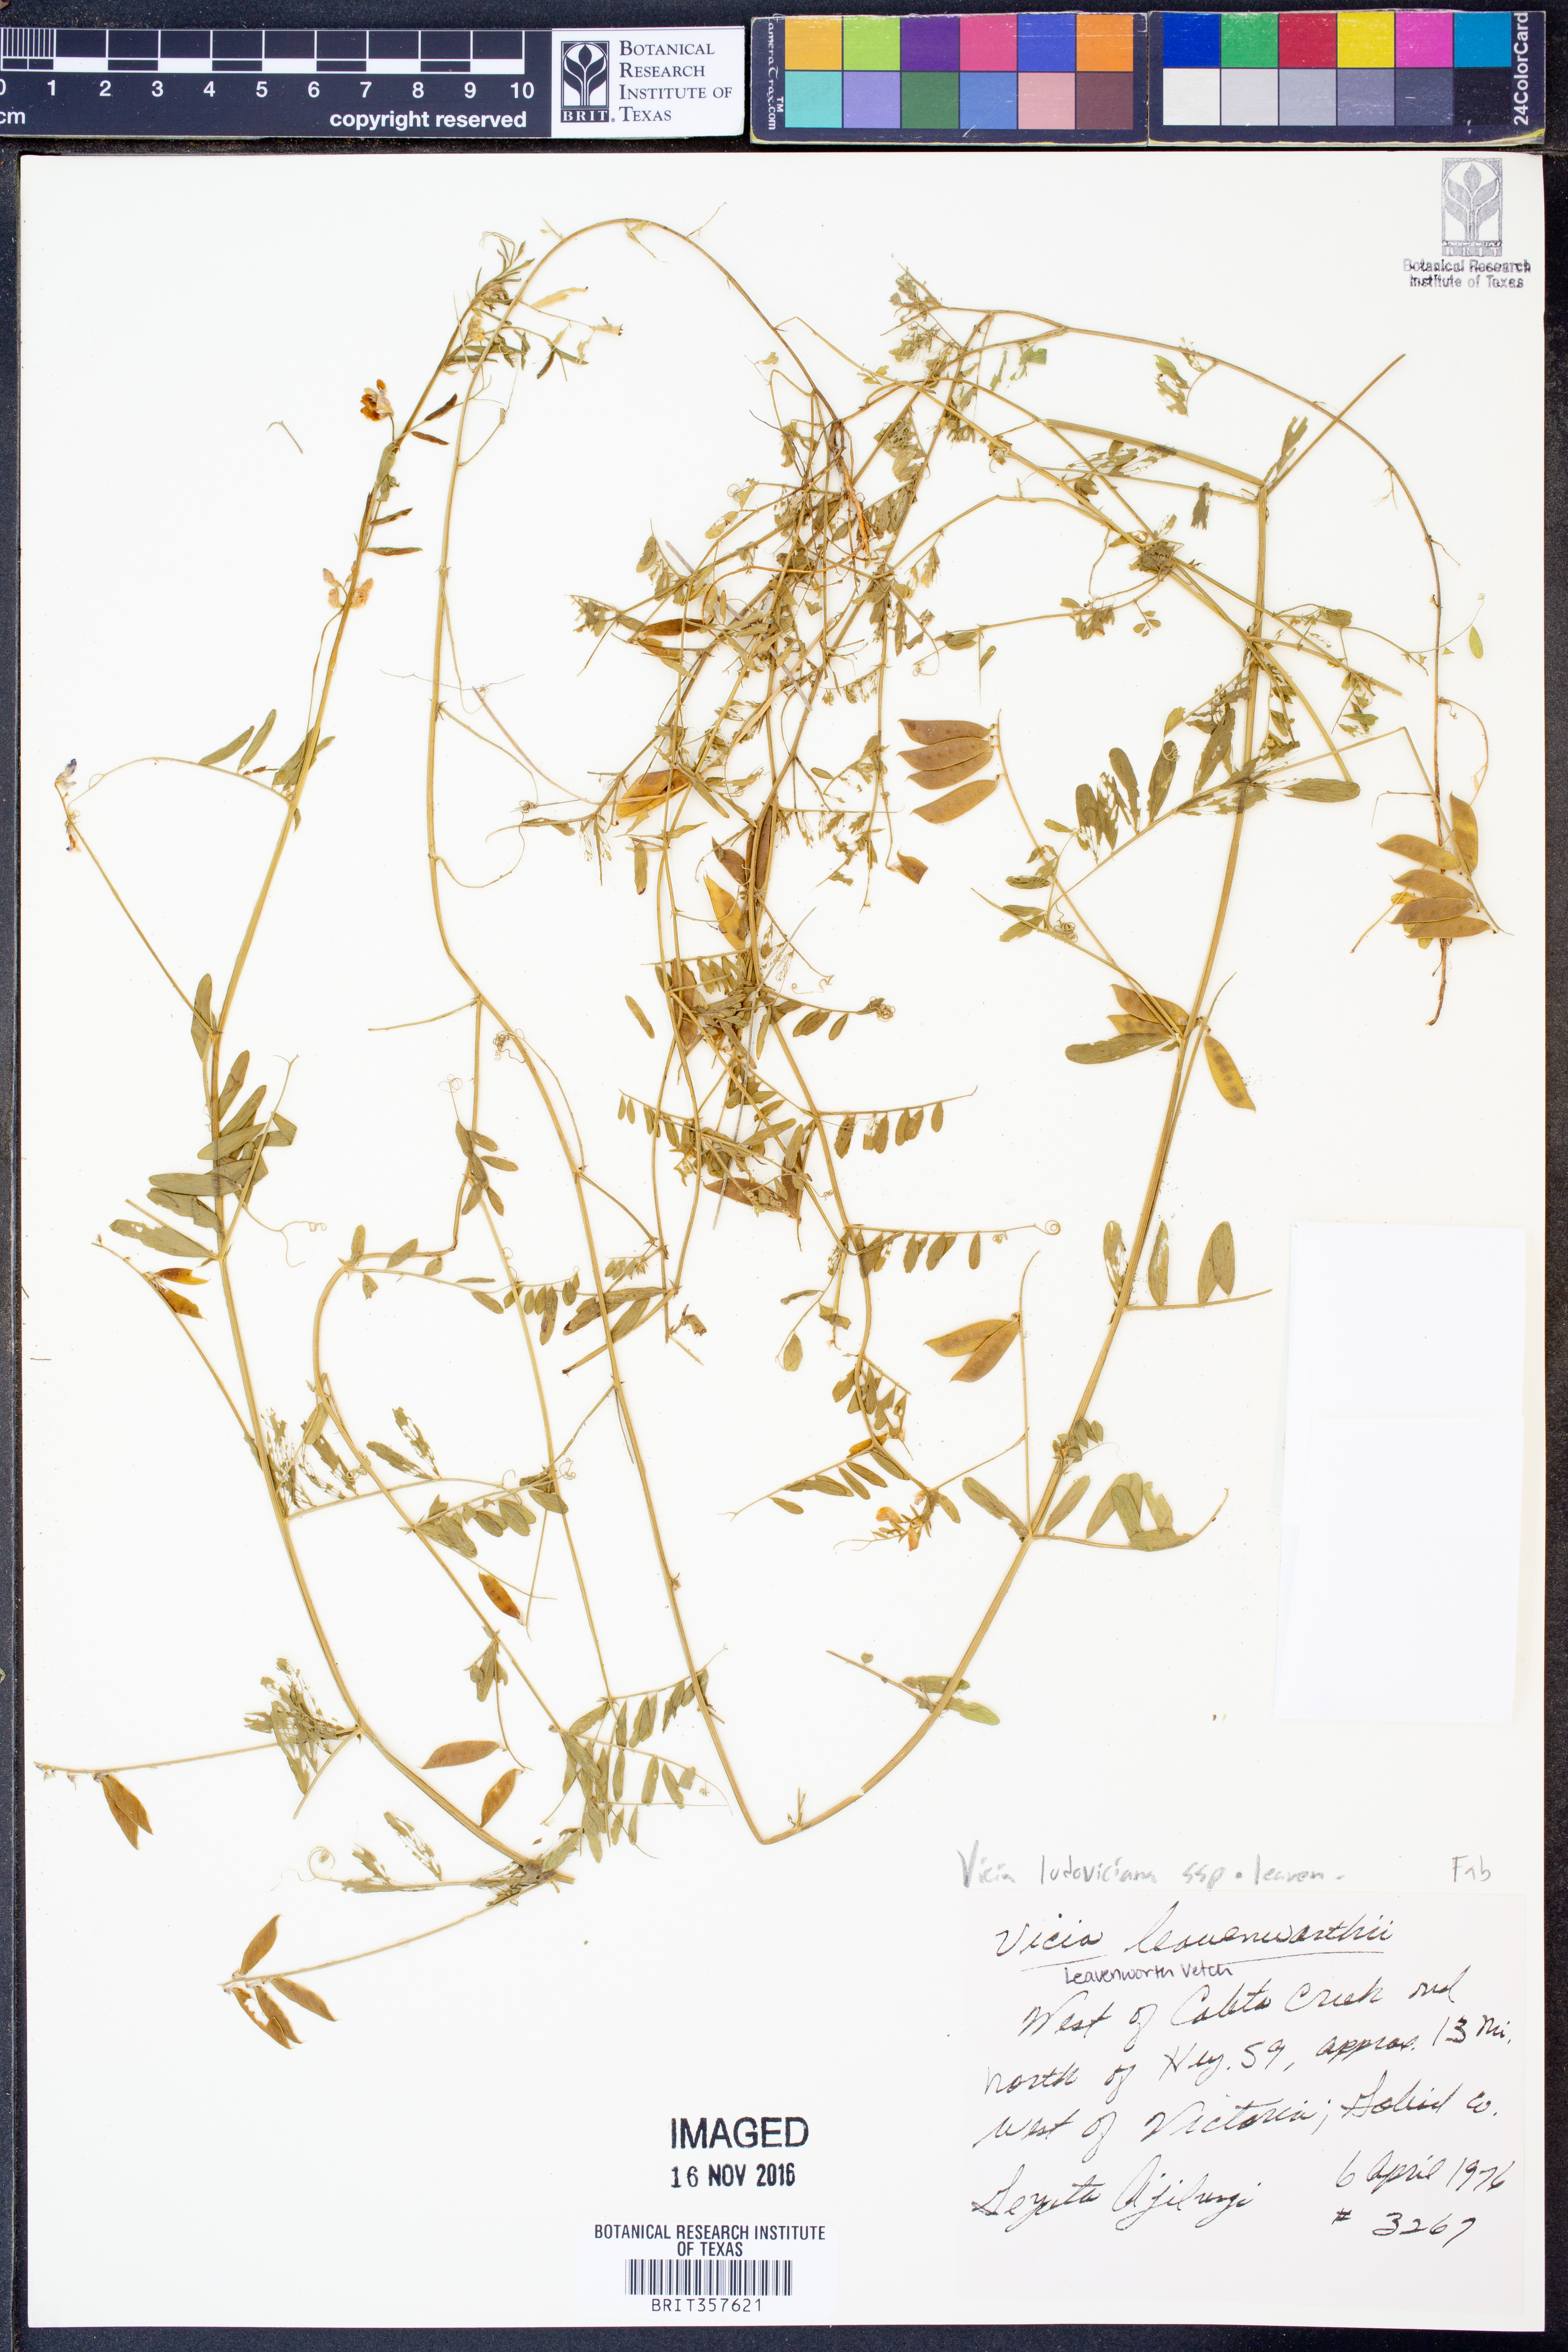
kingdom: Plantae
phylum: Tracheophyta
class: Magnoliopsida
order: Fabales
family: Fabaceae
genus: Vicia
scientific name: Vicia ludoviciana
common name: Louisiana vetch
